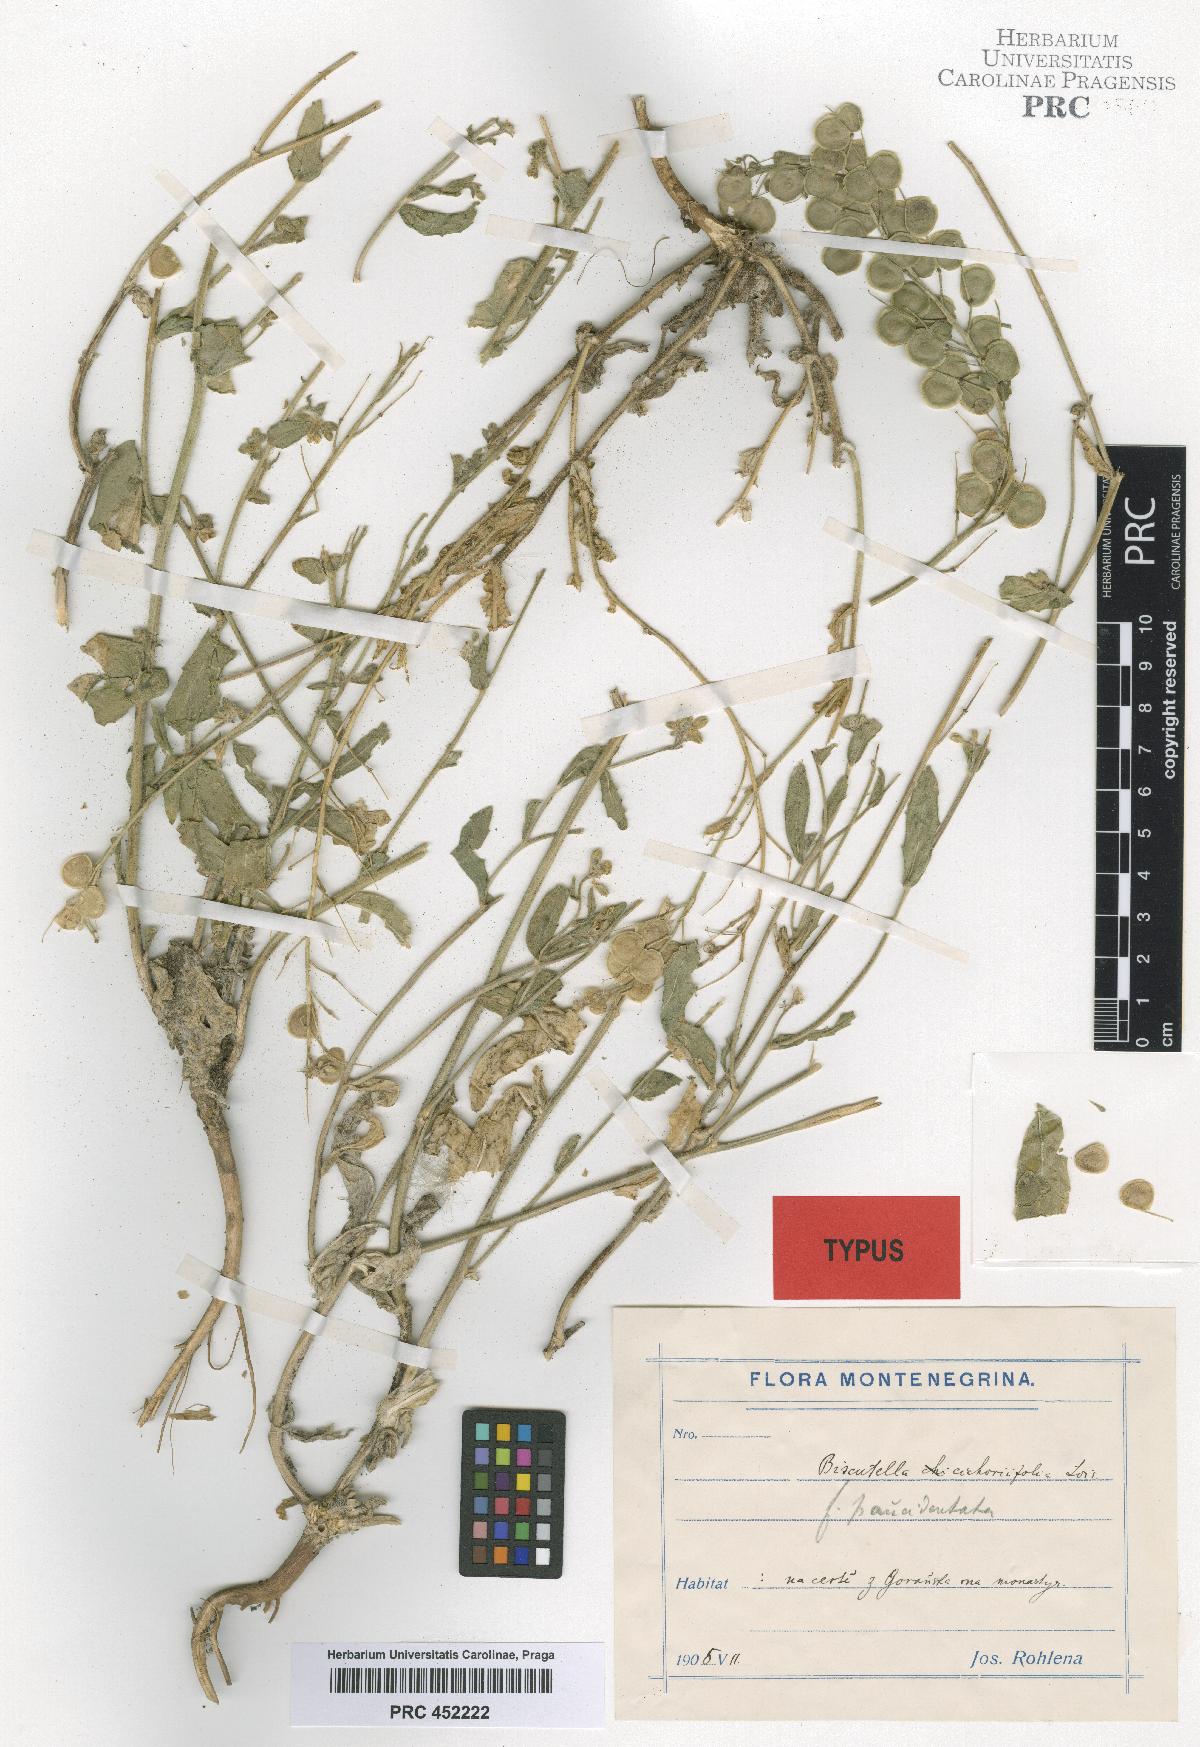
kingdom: Plantae
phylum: Tracheophyta
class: Magnoliopsida
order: Brassicales
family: Brassicaceae
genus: Biscutella
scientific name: Biscutella cichoriifolia
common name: Chicory-leaf buckler mustard
